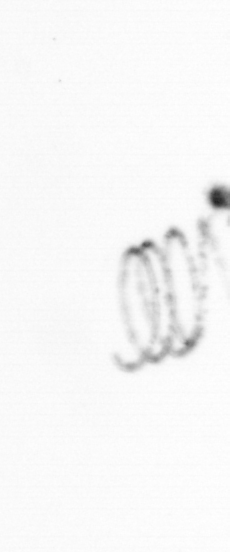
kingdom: Chromista
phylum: Ochrophyta
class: Bacillariophyceae
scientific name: Bacillariophyceae
